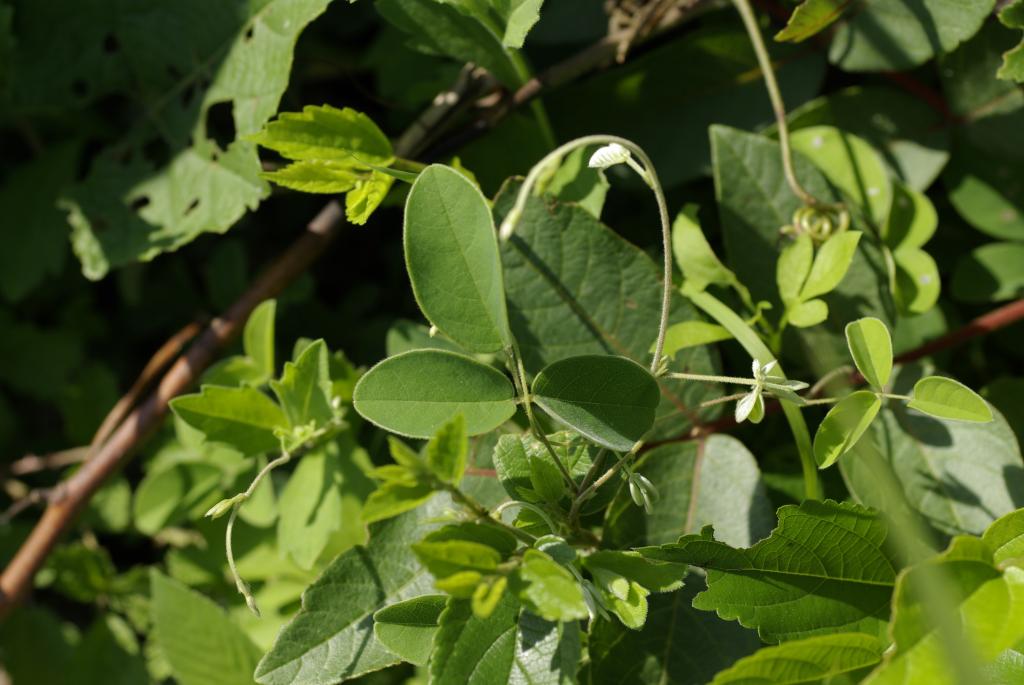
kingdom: Plantae
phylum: Tracheophyta
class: Magnoliopsida
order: Fabales
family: Fabaceae
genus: Galactia
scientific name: Galactia tashiroi
